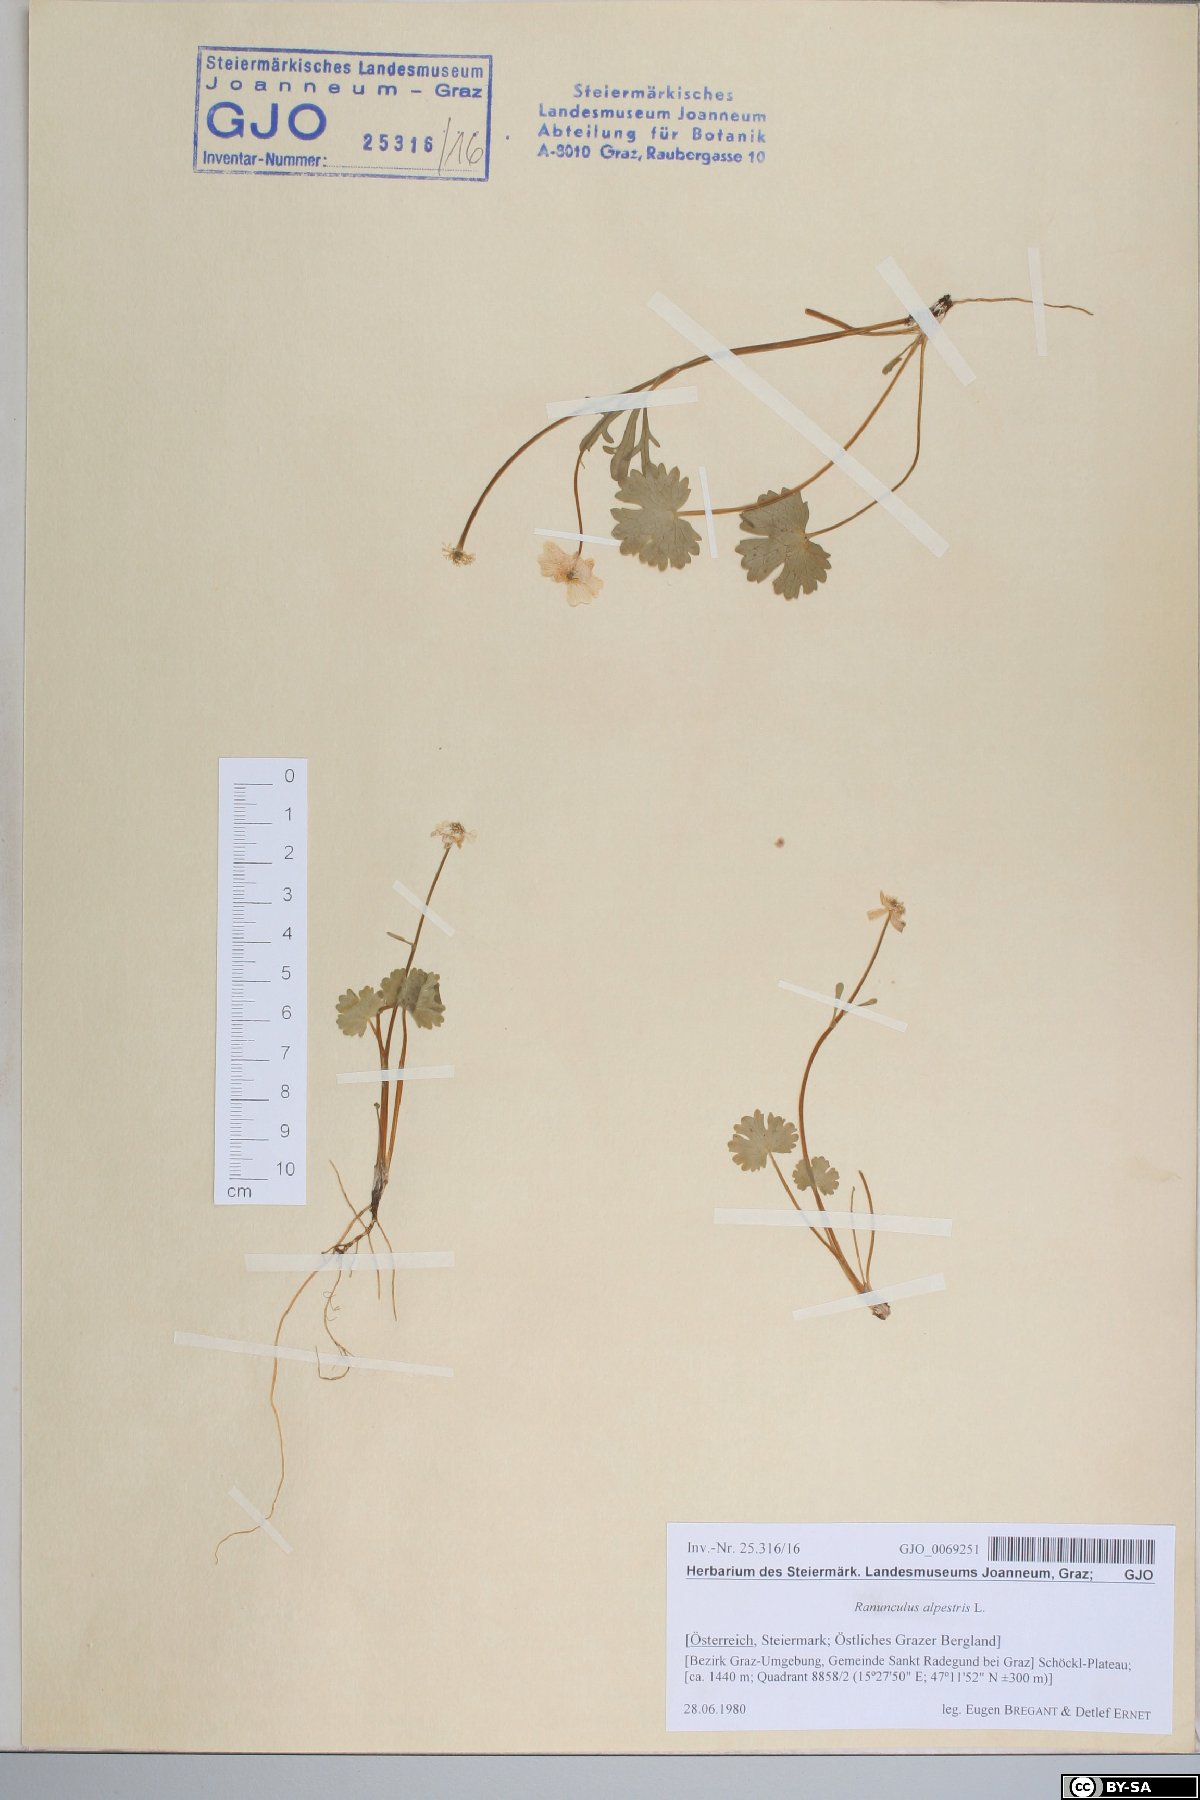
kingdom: Plantae
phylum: Tracheophyta
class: Magnoliopsida
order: Ranunculales
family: Ranunculaceae
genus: Ranunculus
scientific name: Ranunculus alpestris
